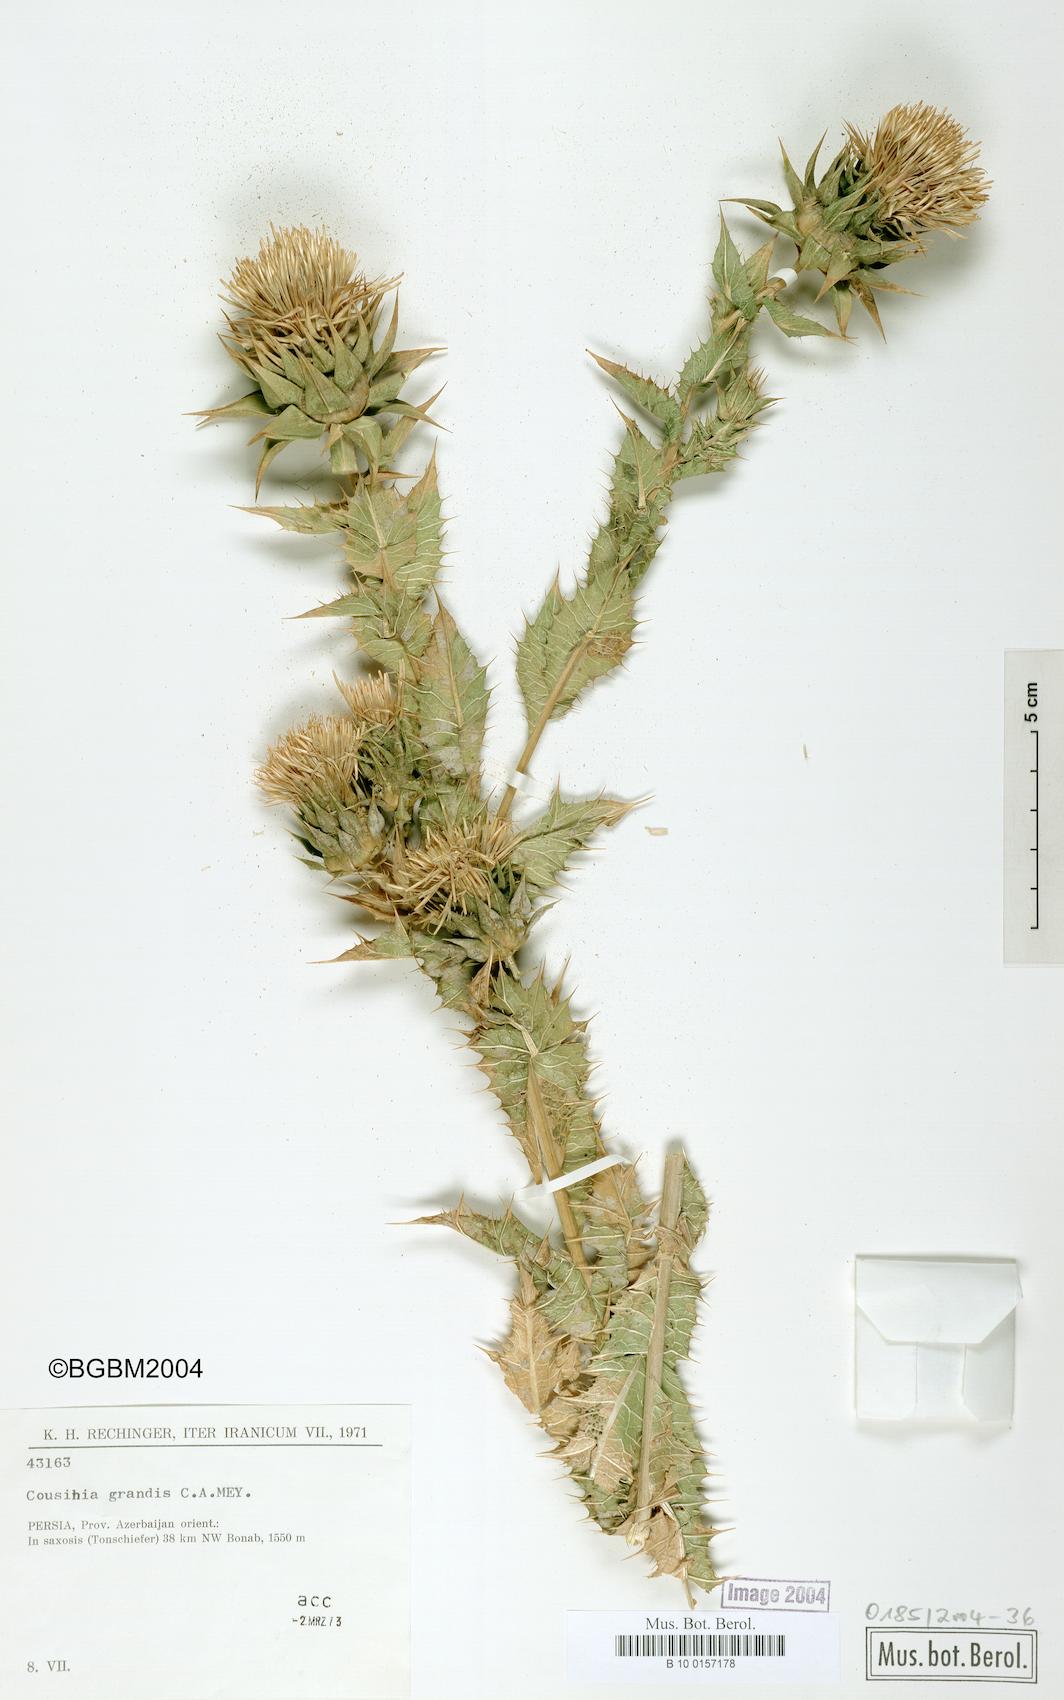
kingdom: Plantae
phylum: Tracheophyta
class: Magnoliopsida
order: Asterales
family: Asteraceae
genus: Cousinia
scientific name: Cousinia grandis
